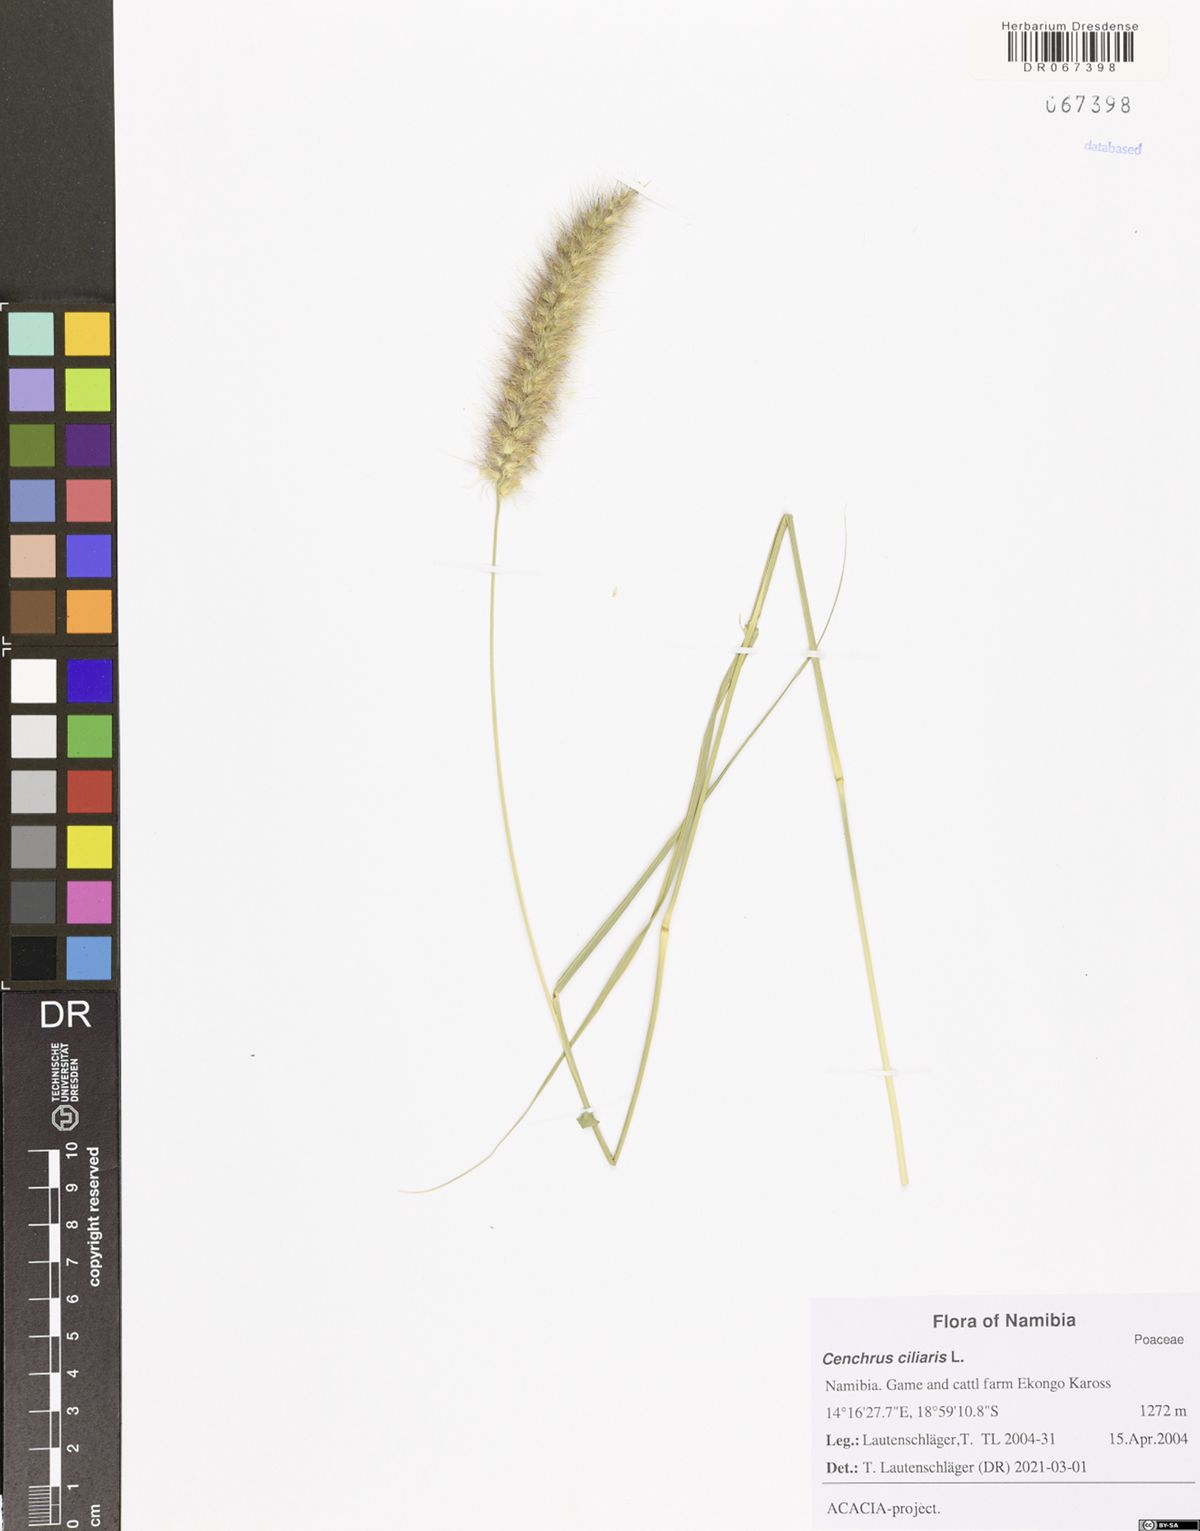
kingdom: Plantae
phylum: Tracheophyta
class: Liliopsida
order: Poales
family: Poaceae
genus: Cenchrus
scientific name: Cenchrus ciliaris
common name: Buffelgrass
